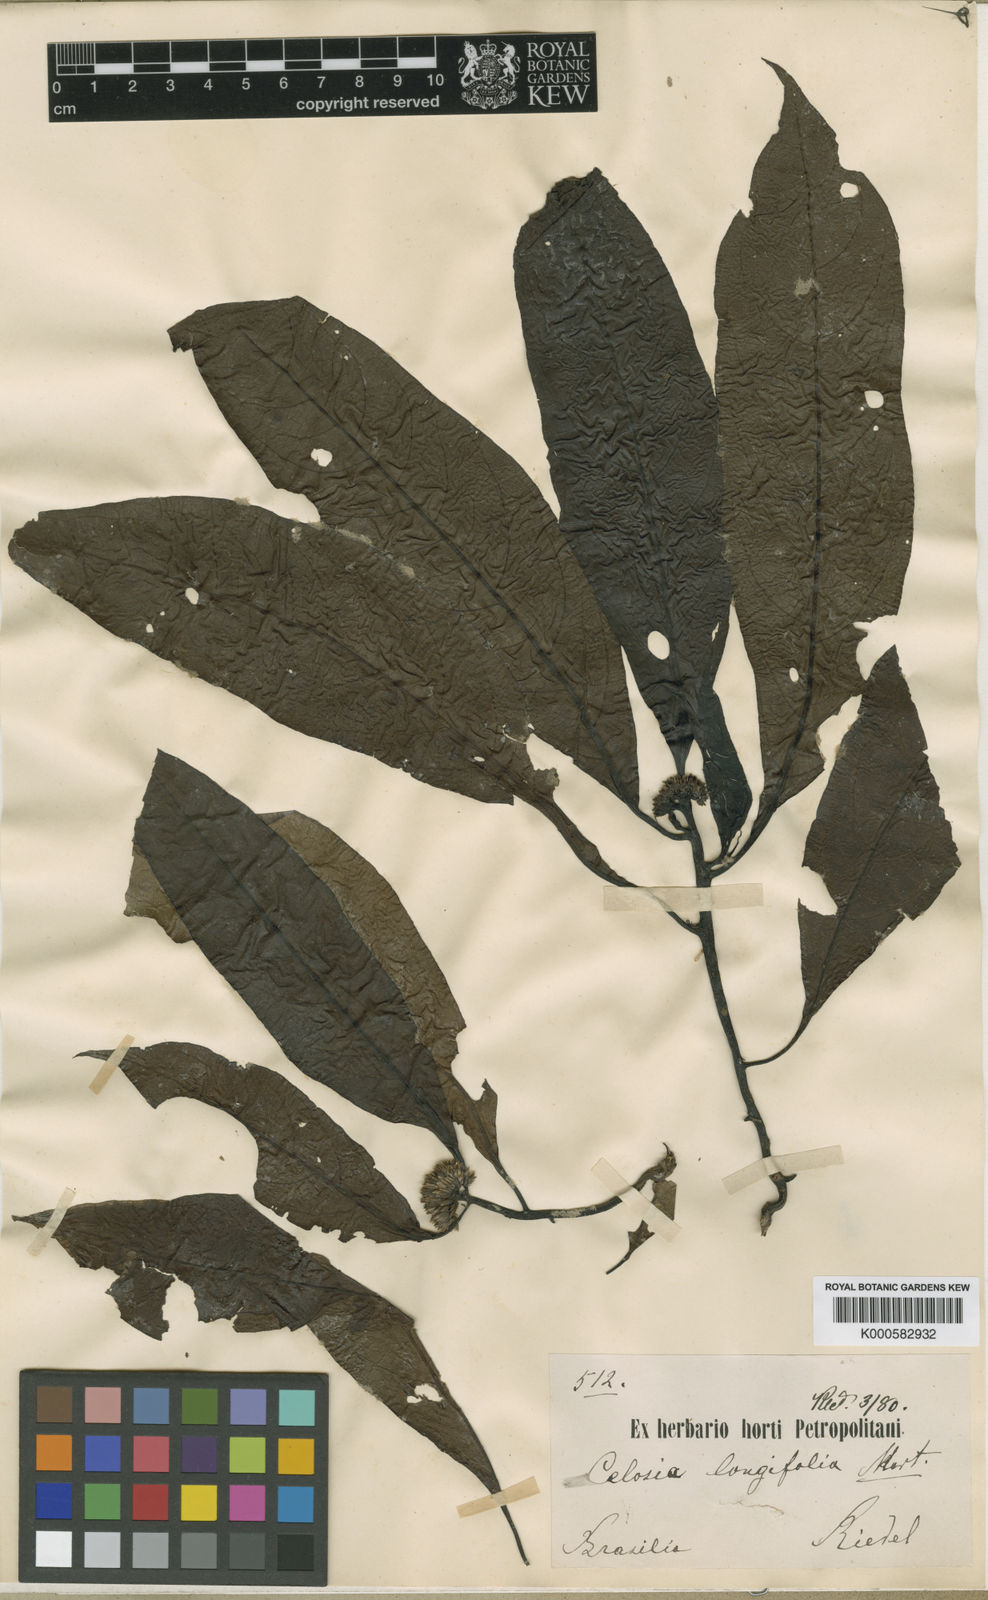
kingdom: Plantae
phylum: Tracheophyta
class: Magnoliopsida
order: Caryophyllales
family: Amaranthaceae
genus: Celosia
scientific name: Celosia longifolia
